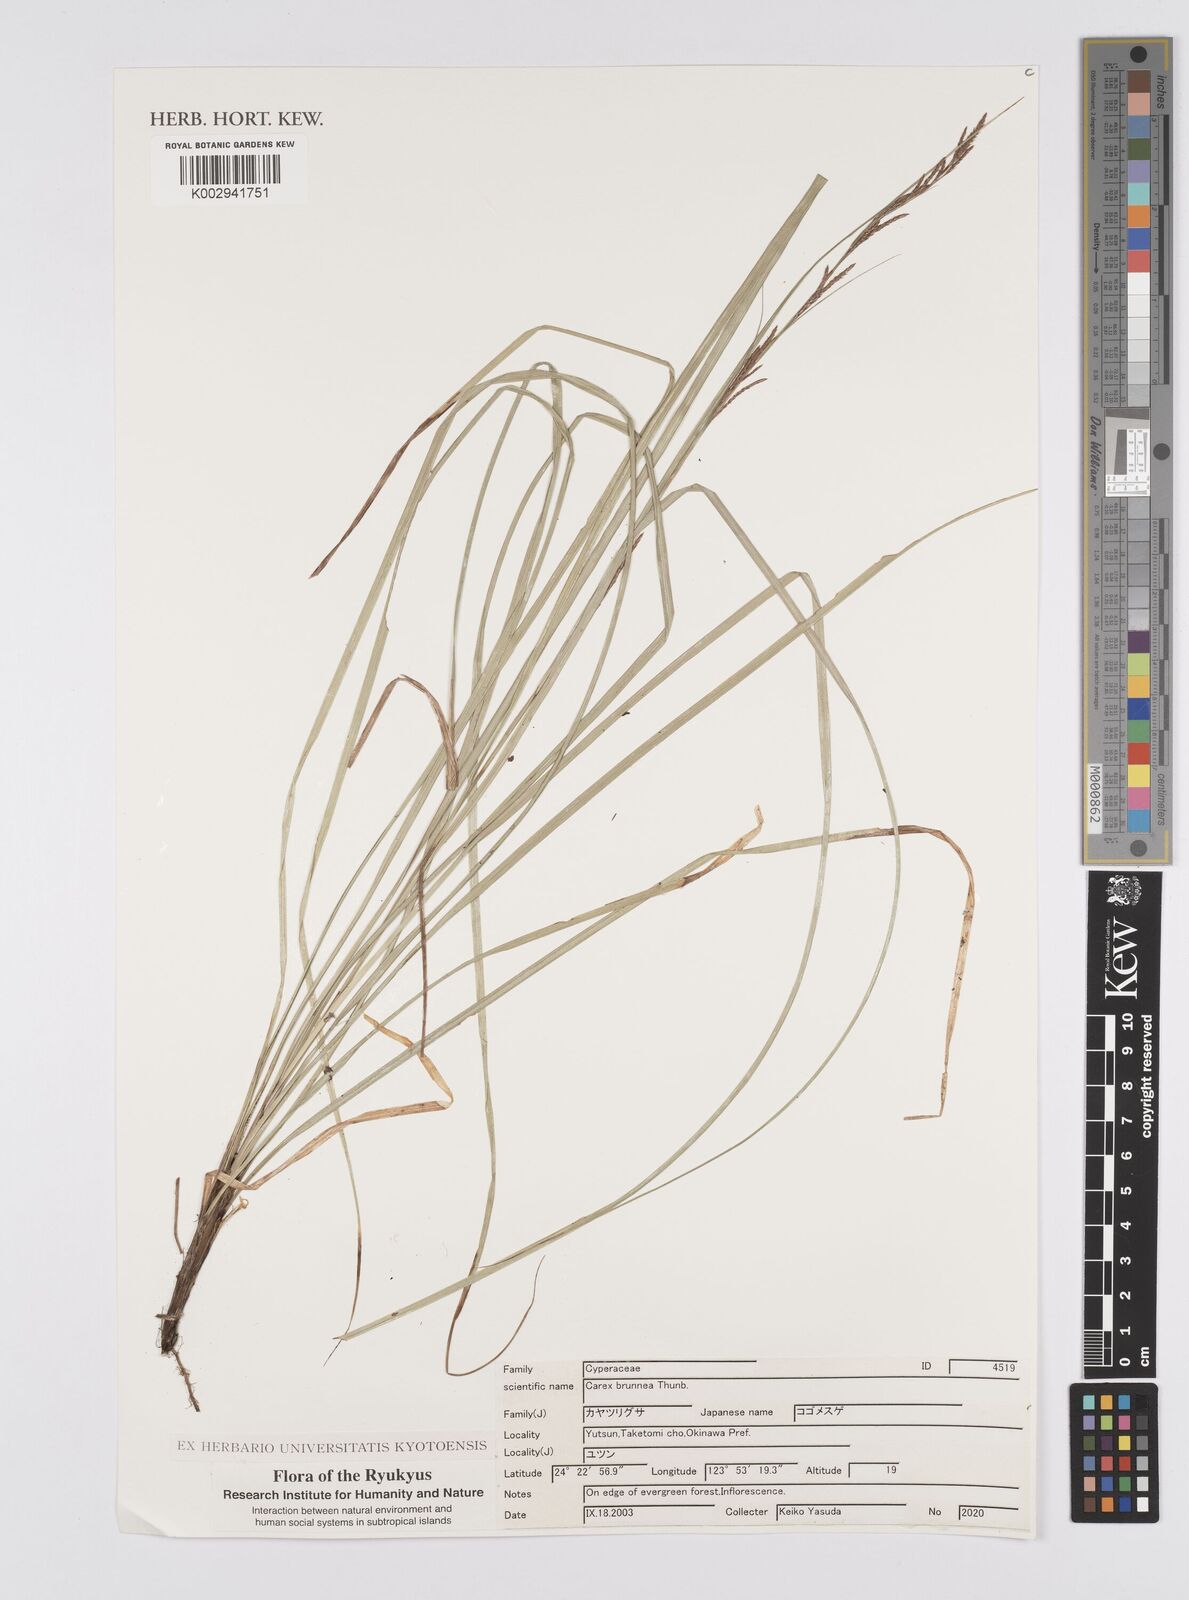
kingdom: Plantae
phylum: Tracheophyta
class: Liliopsida
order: Poales
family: Cyperaceae
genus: Carex
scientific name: Carex brunnea
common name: Greater brown sedge
